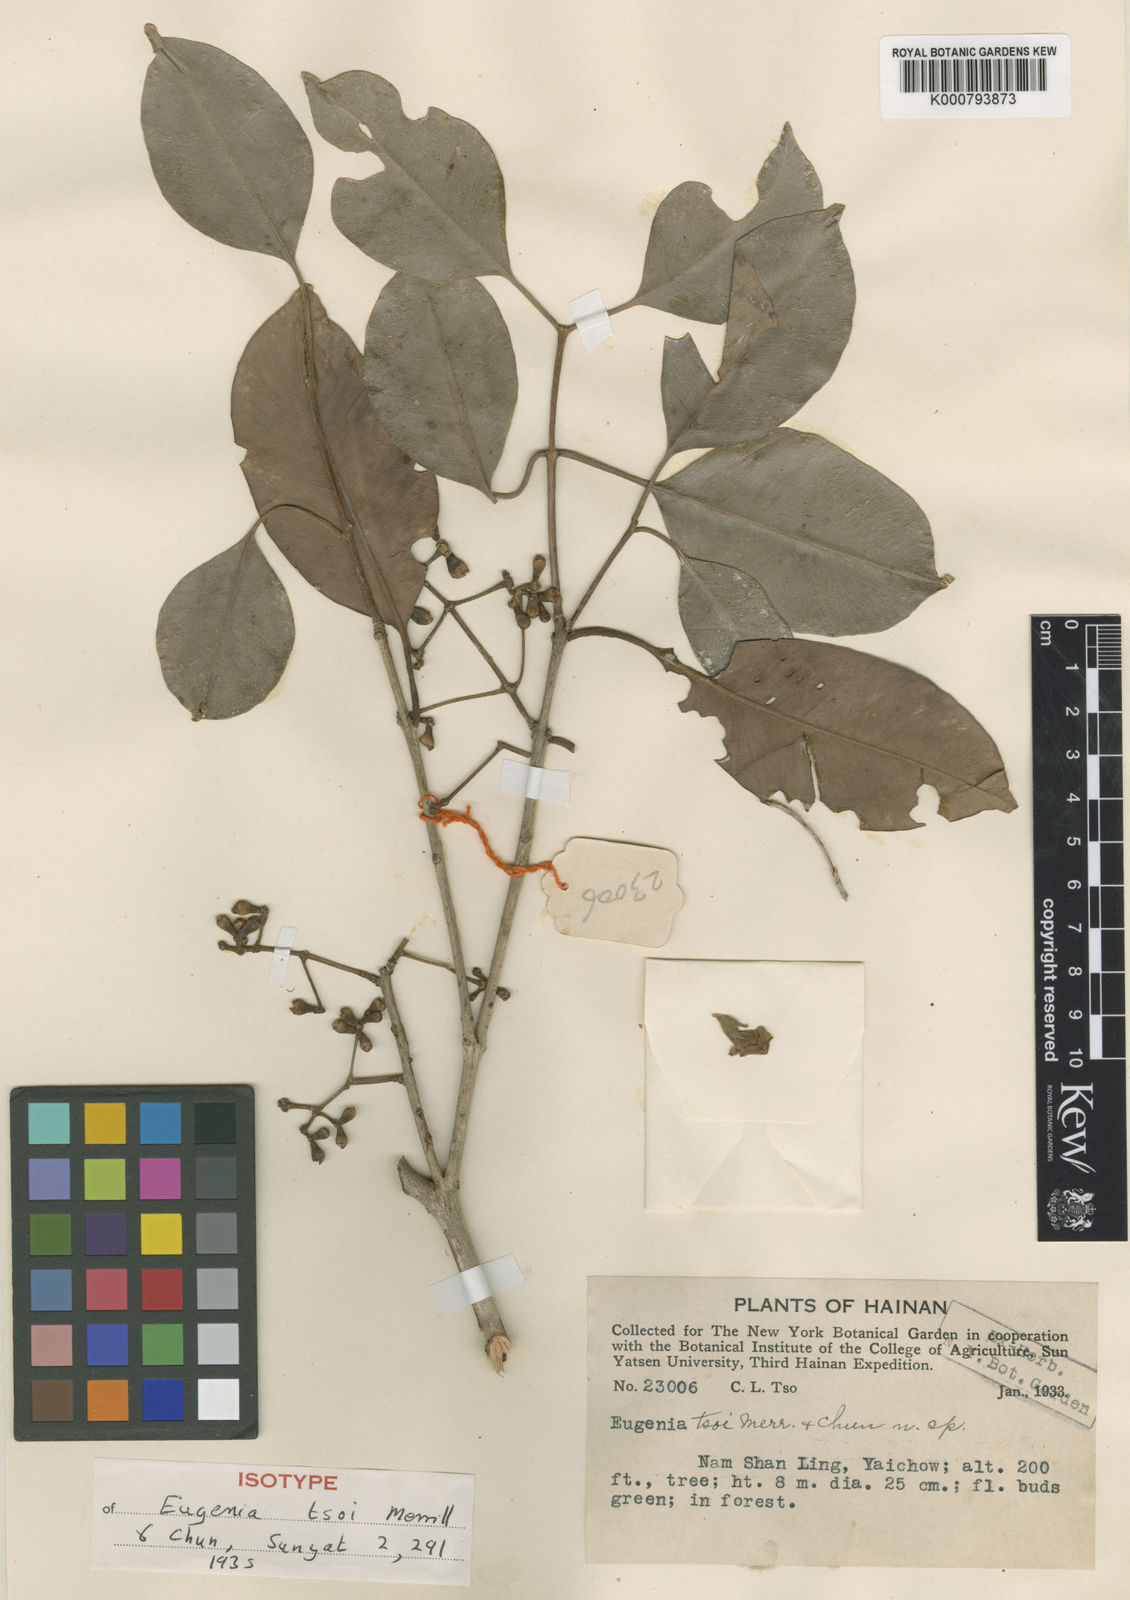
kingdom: Plantae
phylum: Tracheophyta
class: Magnoliopsida
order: Myrtales
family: Myrtaceae
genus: Syzygium
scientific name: Syzygium cumini
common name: Java plum
